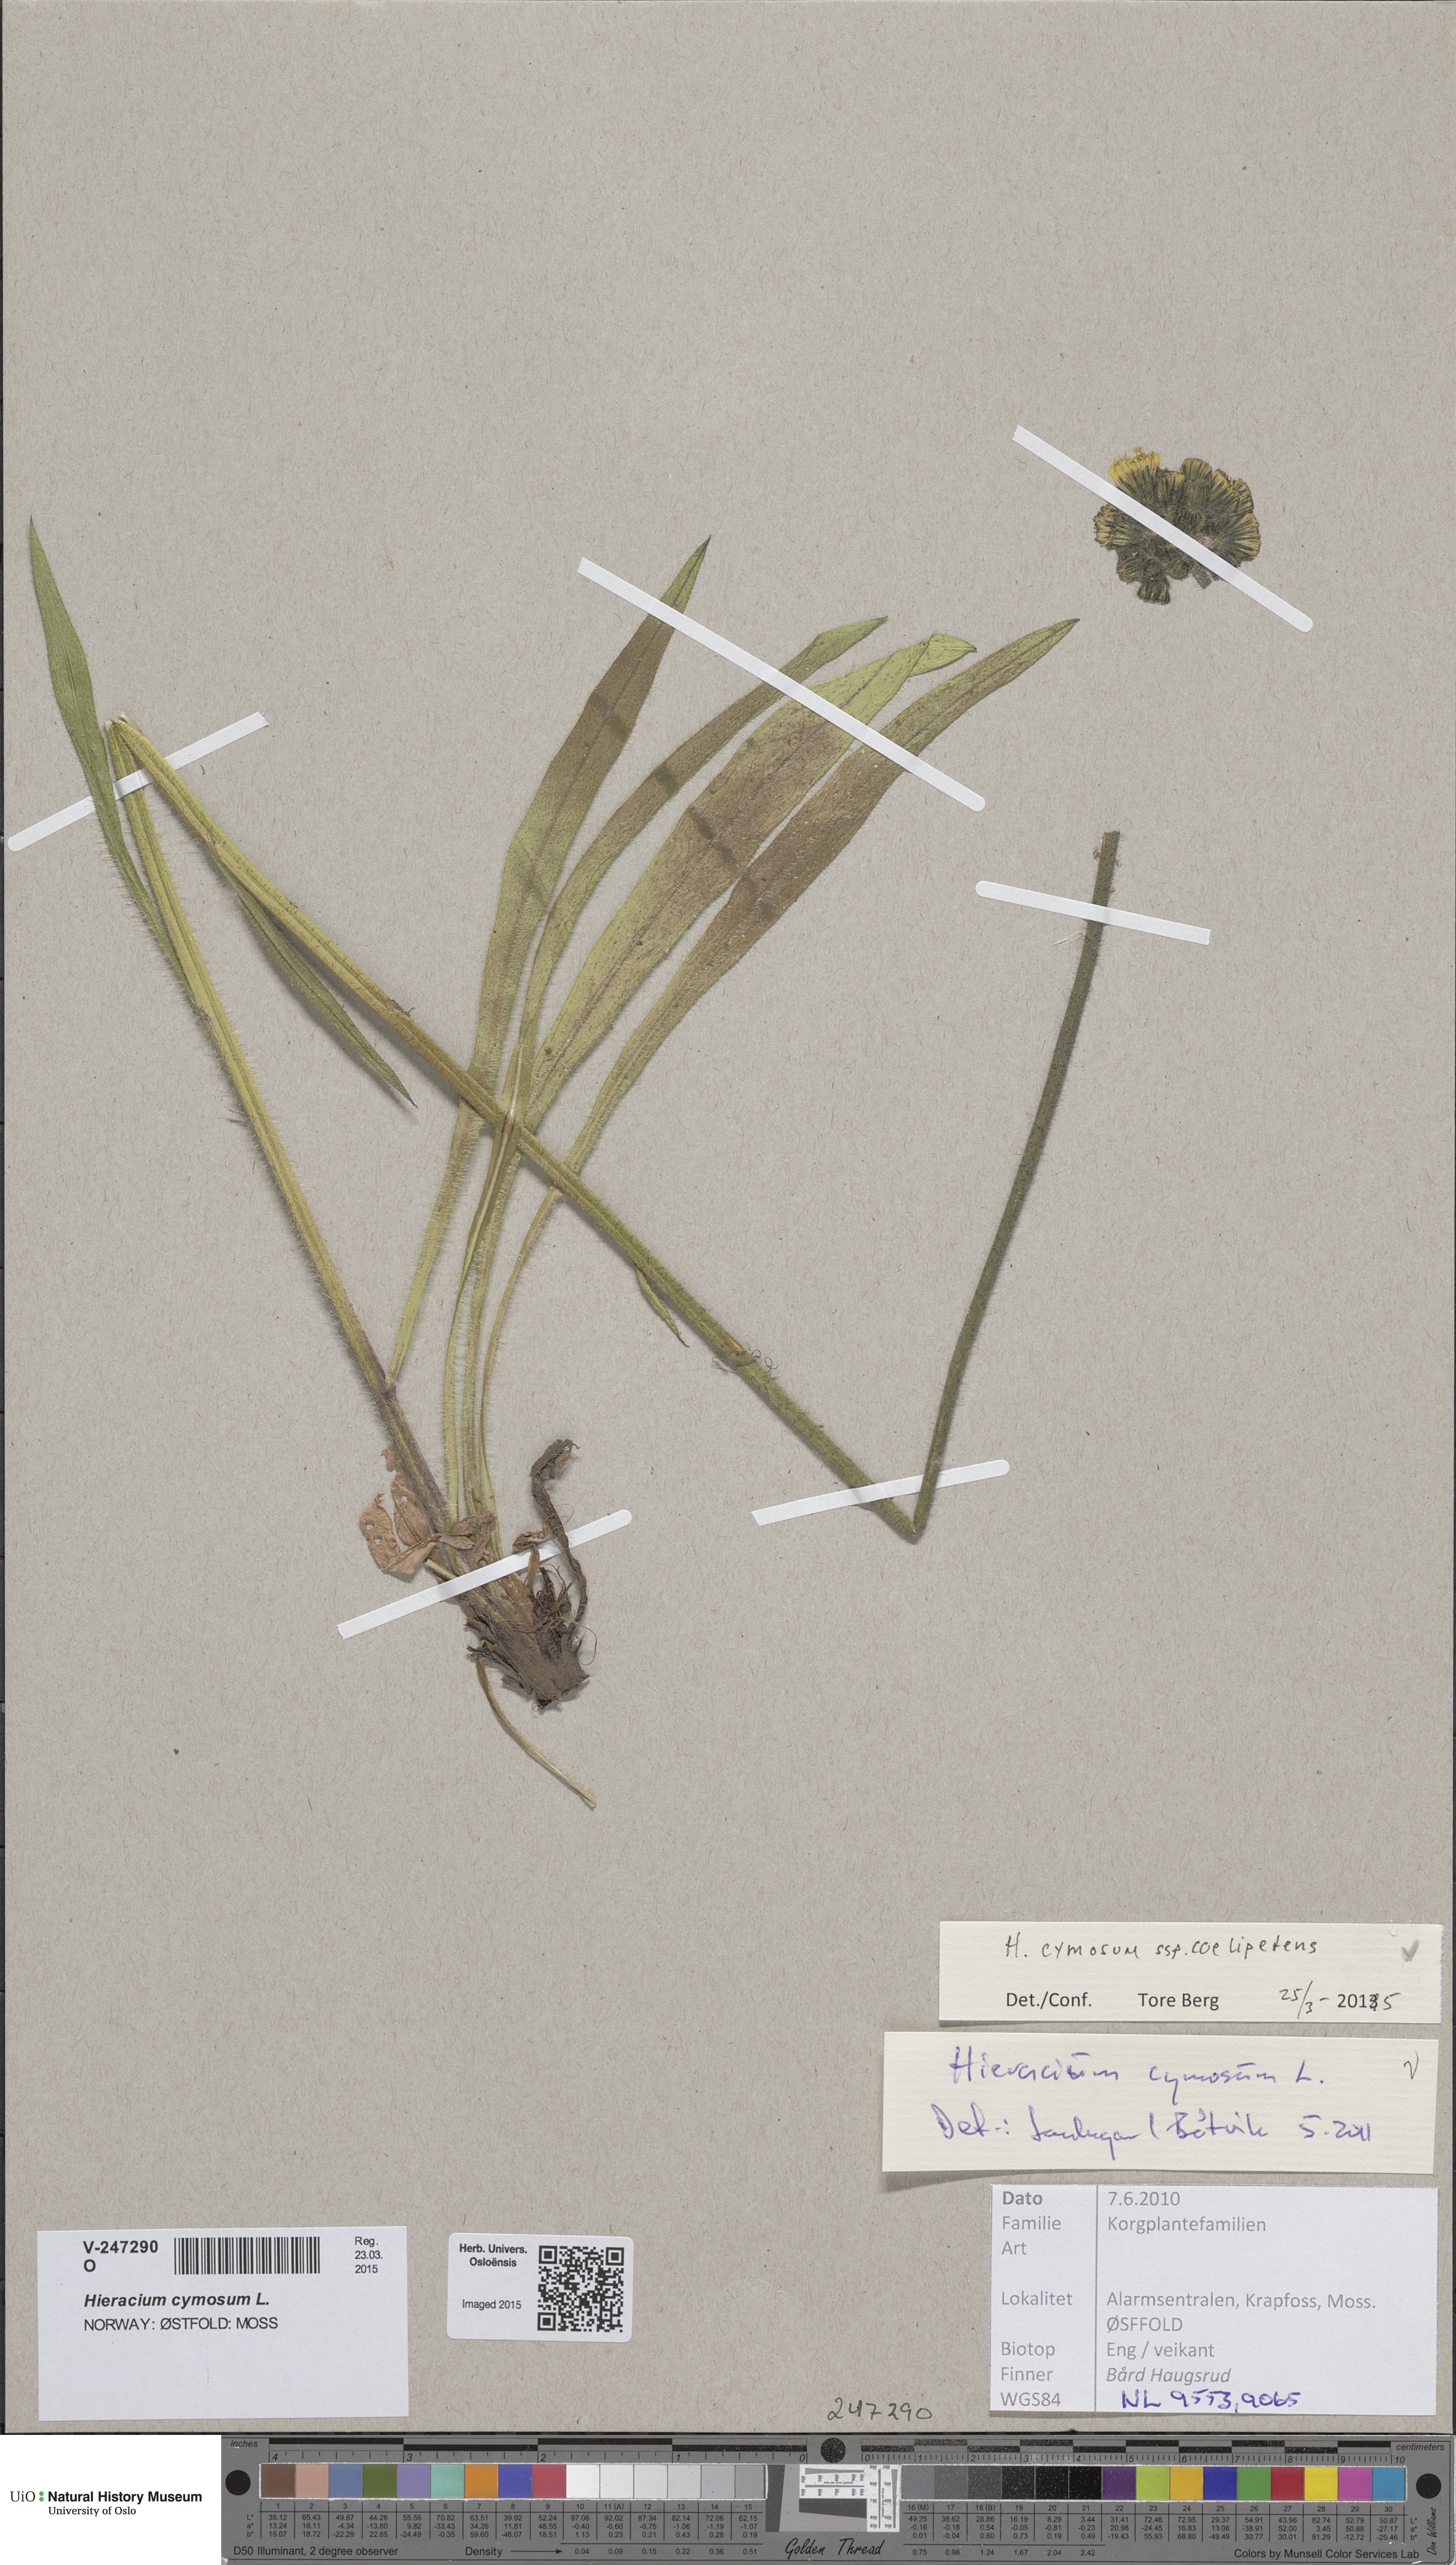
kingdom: Plantae
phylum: Tracheophyta
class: Magnoliopsida
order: Asterales
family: Asteraceae
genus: Pilosella
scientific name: Pilosella cymosa
